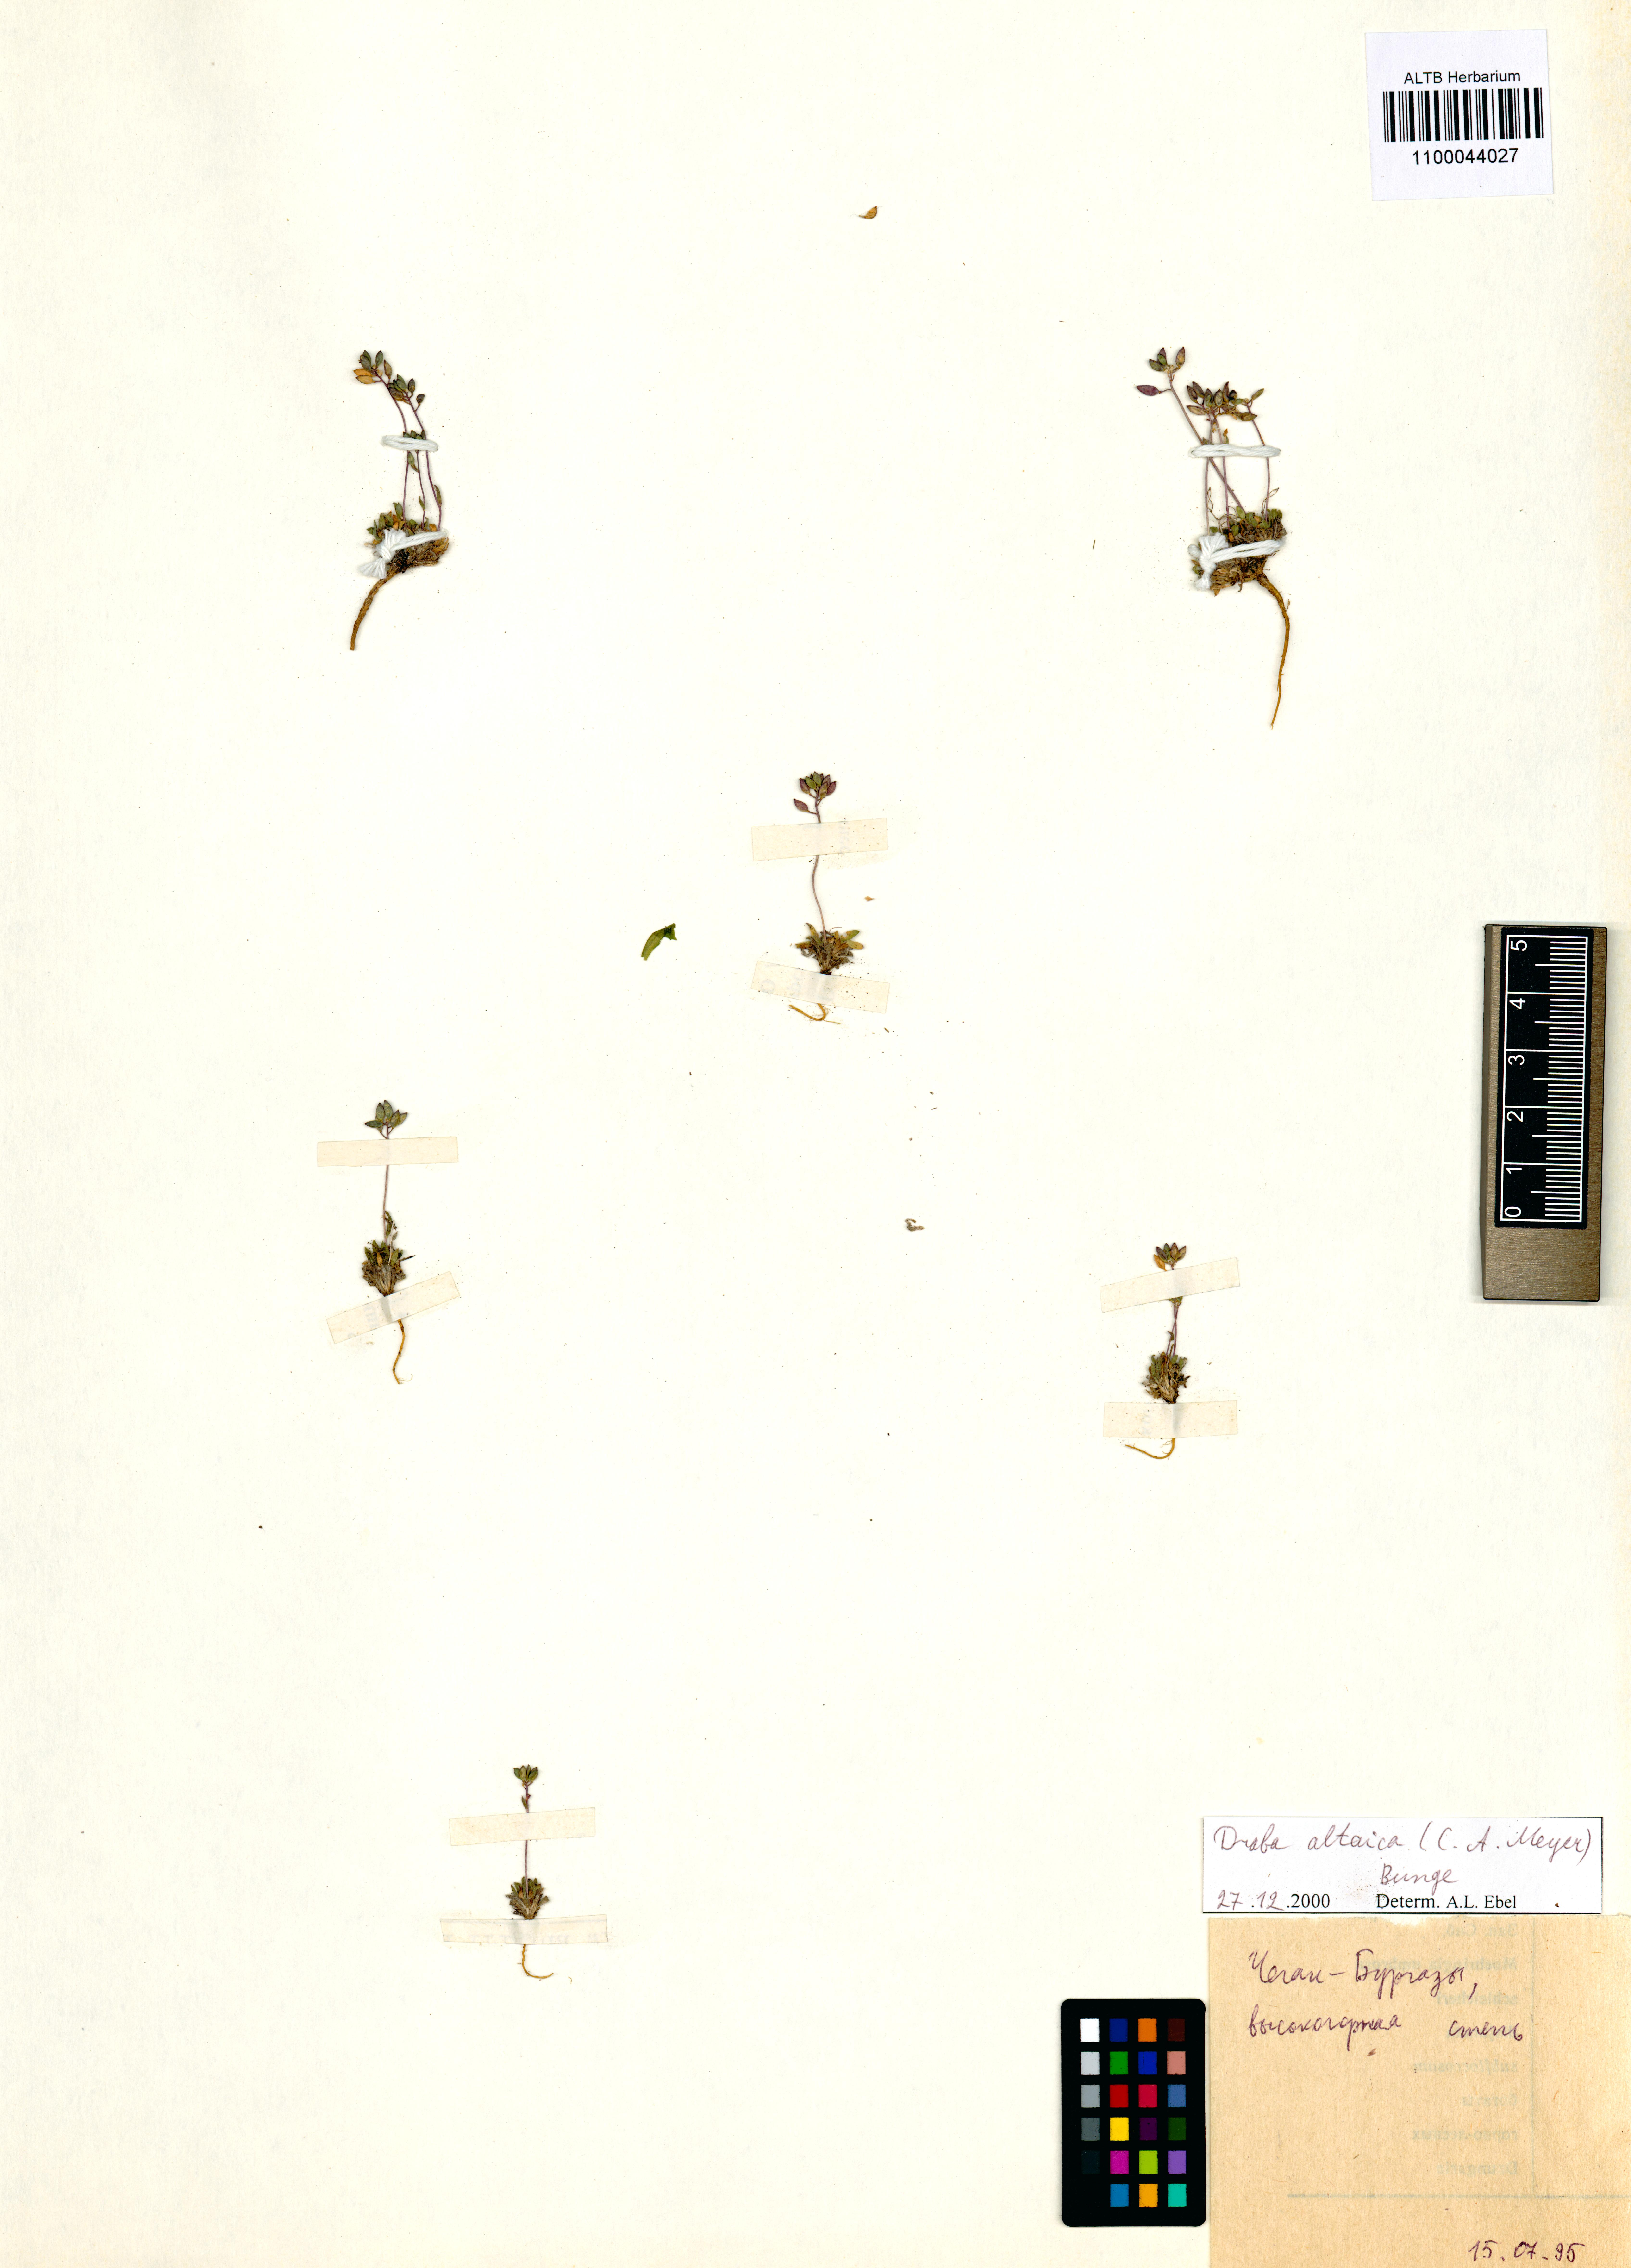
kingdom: Plantae
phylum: Tracheophyta
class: Magnoliopsida
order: Brassicales
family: Brassicaceae
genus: Draba
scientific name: Draba altaica
